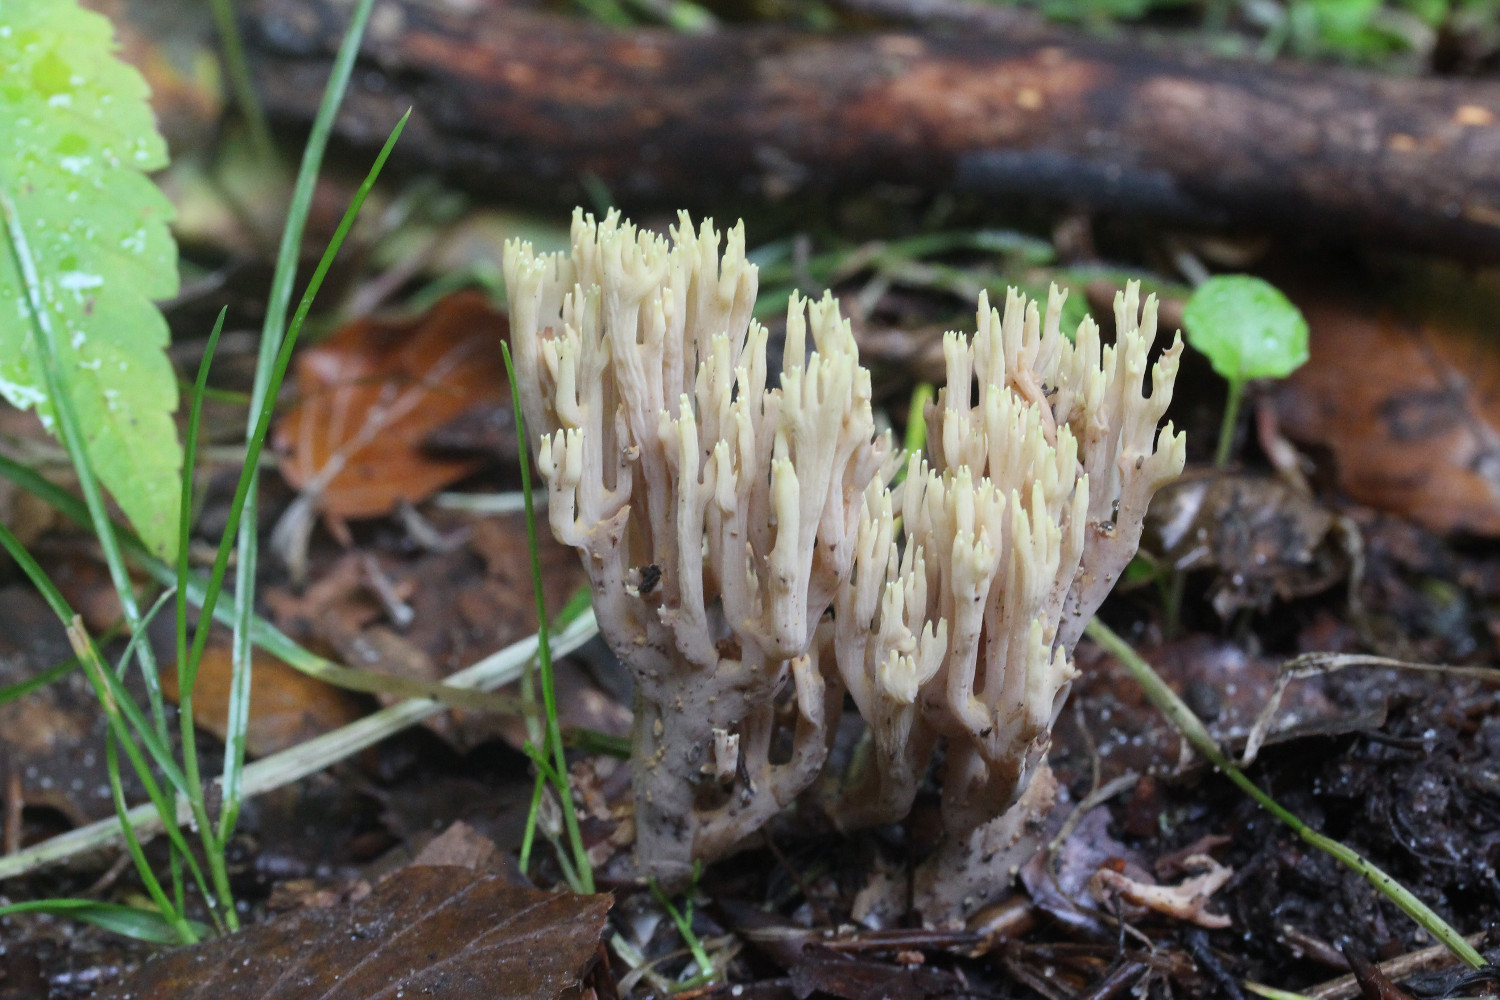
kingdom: Fungi
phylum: Basidiomycota
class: Agaricomycetes
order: Gomphales
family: Gomphaceae
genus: Ramaria
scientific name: Ramaria stricta
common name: rank koralsvamp
